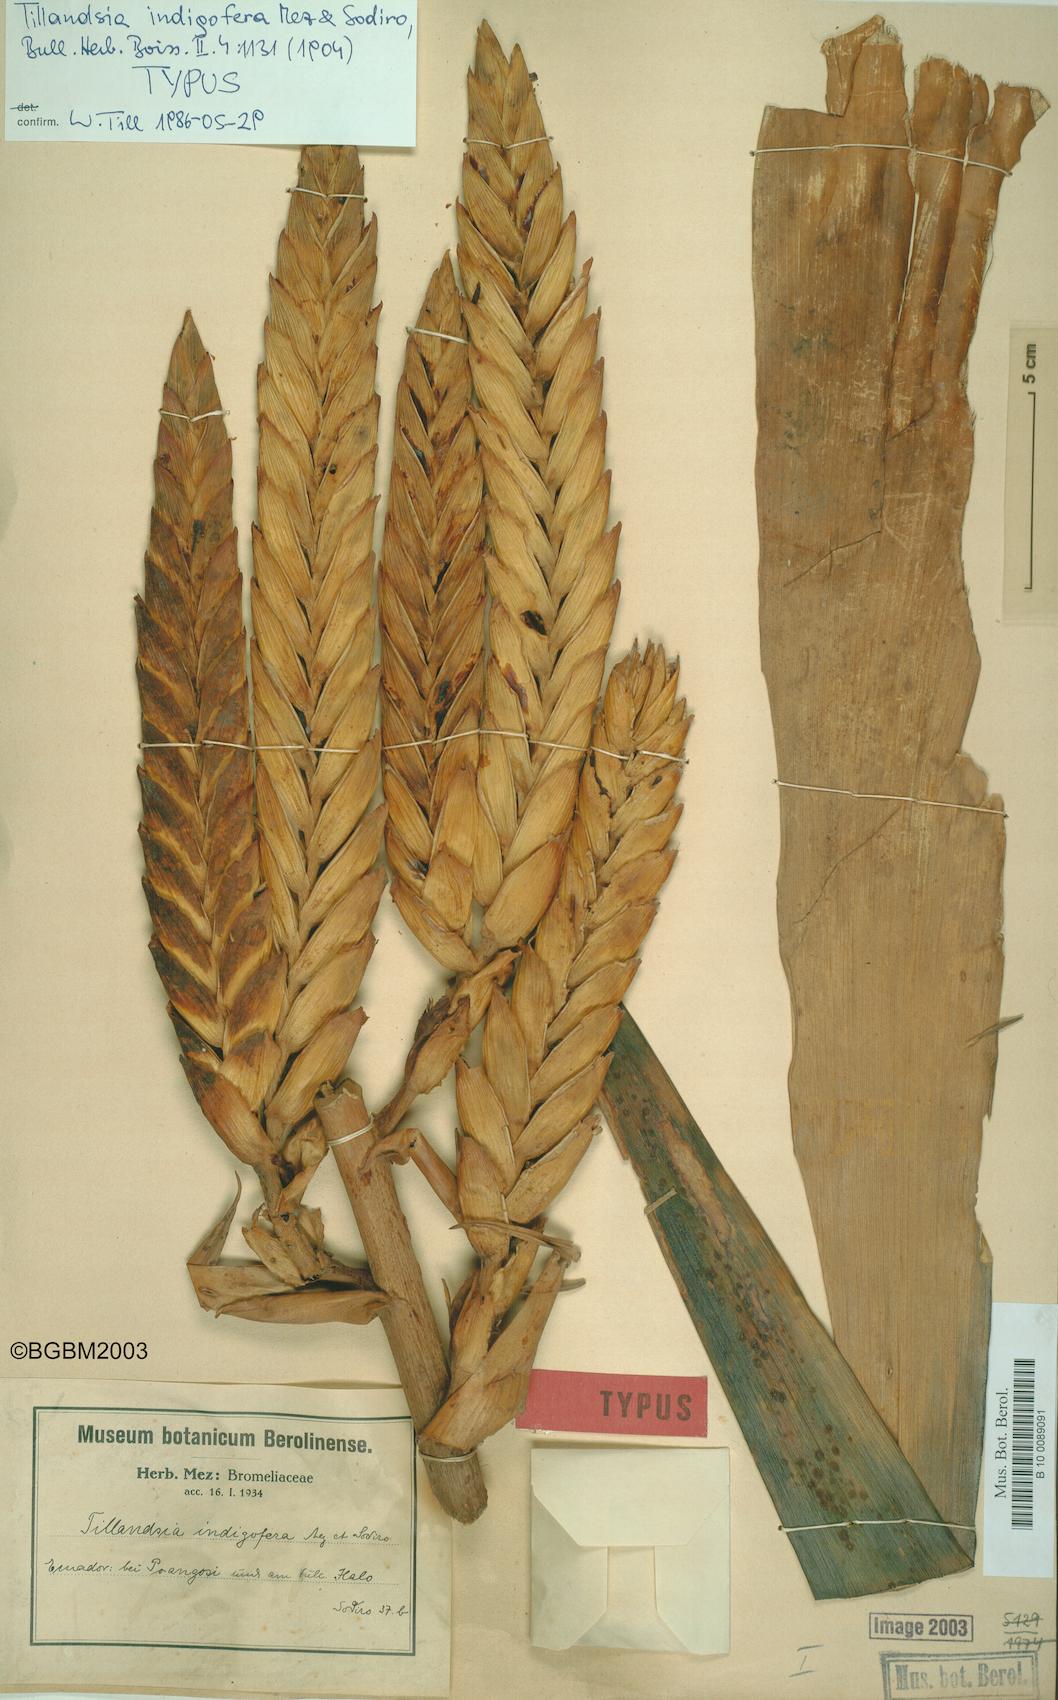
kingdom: Plantae
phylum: Tracheophyta
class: Liliopsida
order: Poales
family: Bromeliaceae
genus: Tillandsia
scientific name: Tillandsia indigofera
